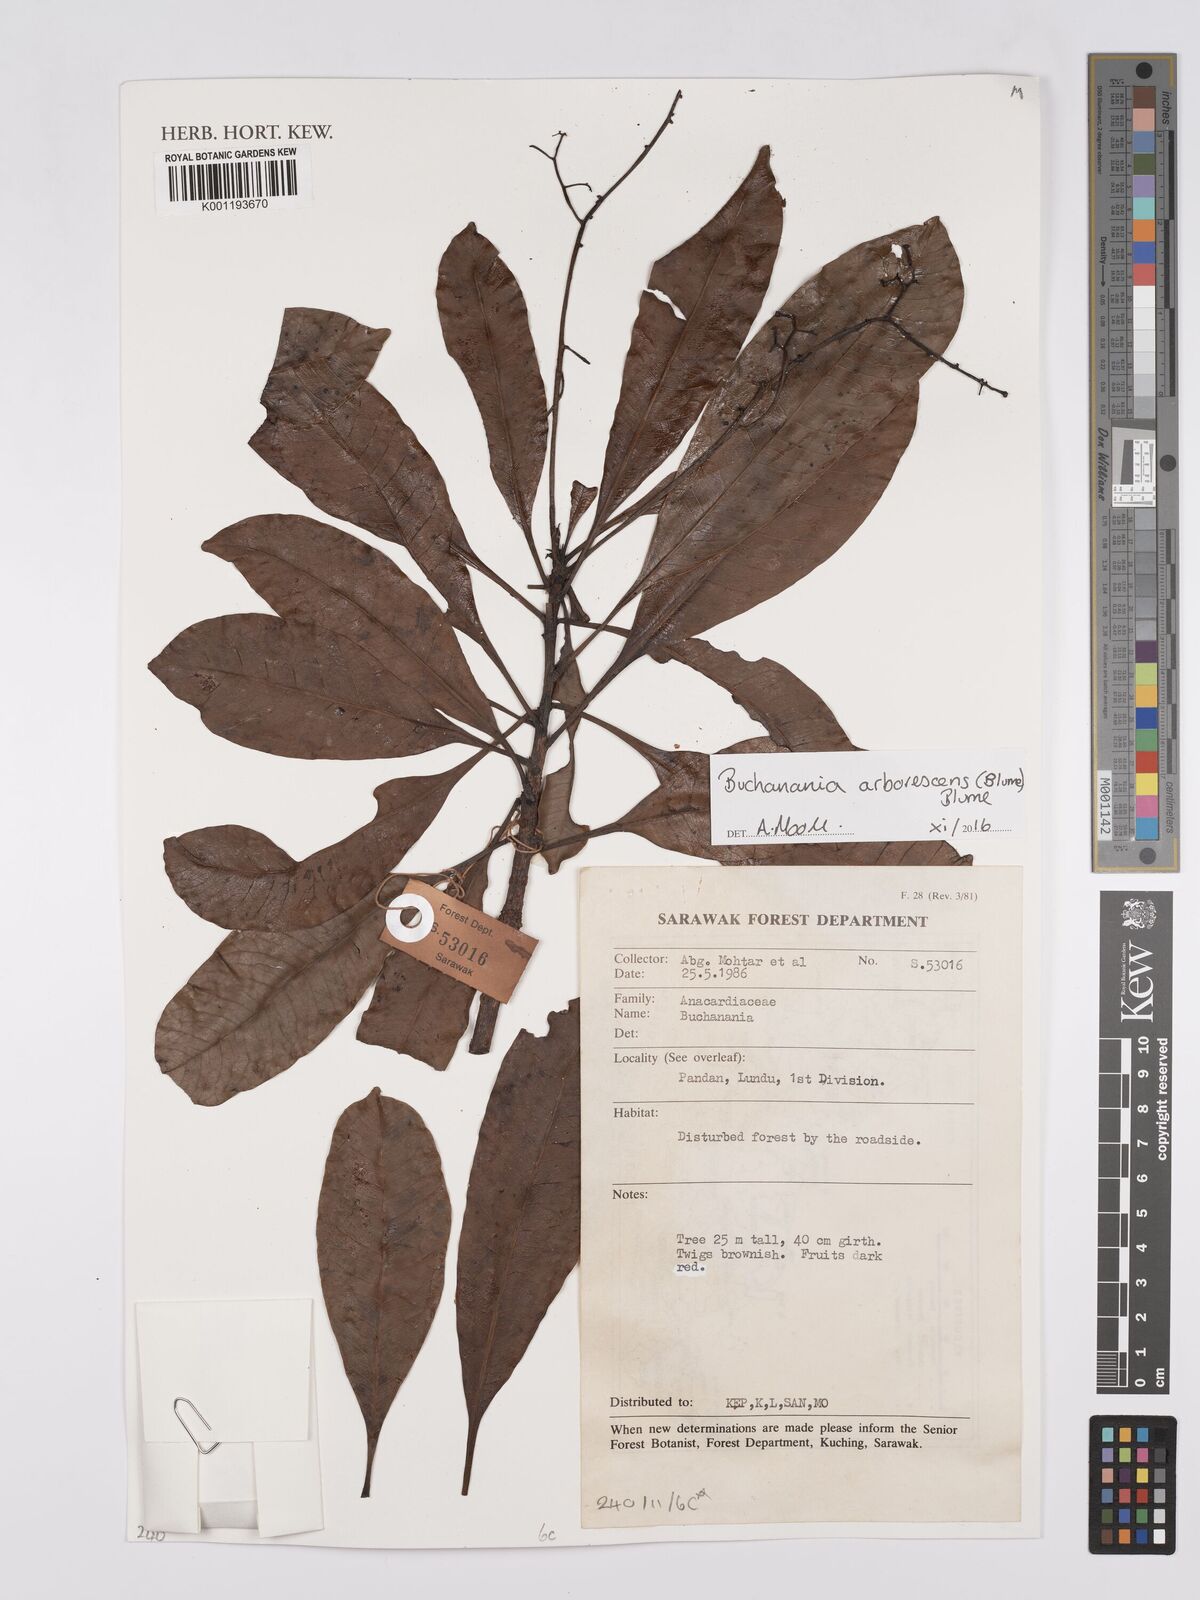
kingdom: Plantae
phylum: Tracheophyta
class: Magnoliopsida
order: Sapindales
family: Anacardiaceae
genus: Buchanania
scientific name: Buchanania arborescens
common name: Sparrow’s mango
